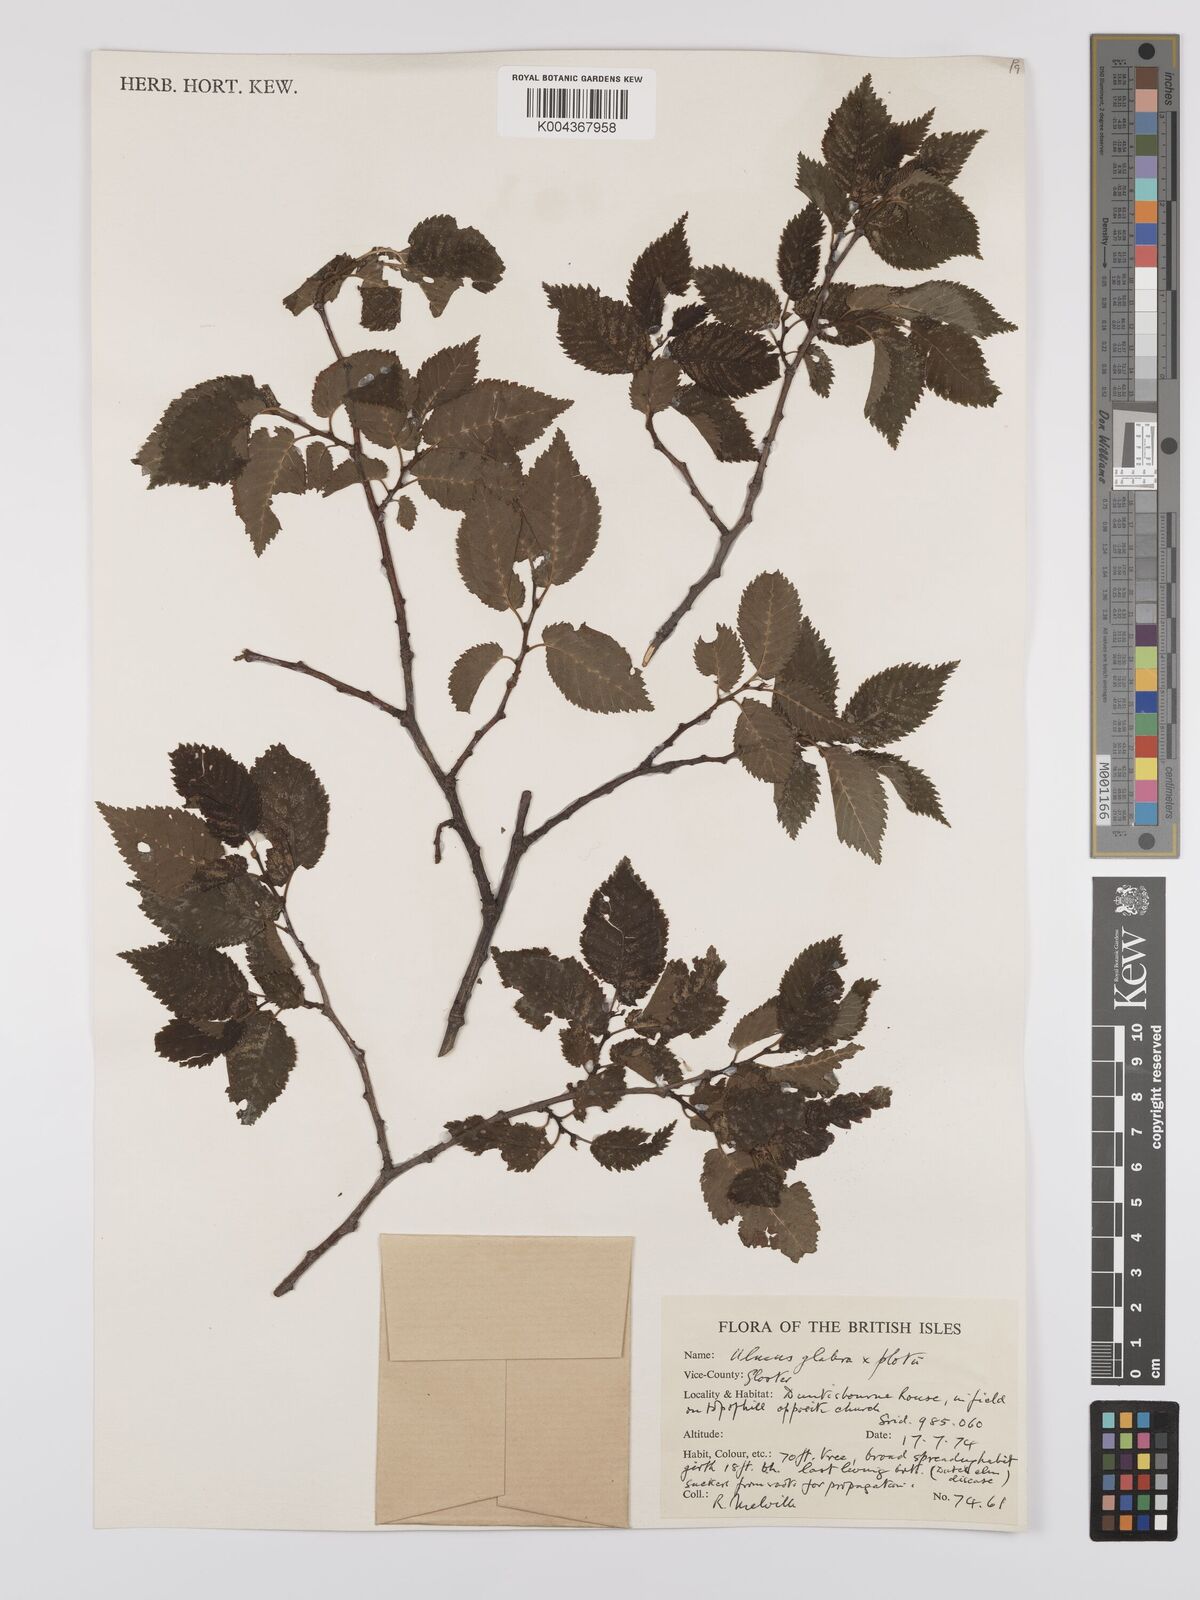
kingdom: Plantae
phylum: Tracheophyta
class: Magnoliopsida
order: Rosales
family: Ulmaceae
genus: Ulmus
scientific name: Ulmus glabra
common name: Wych elm
